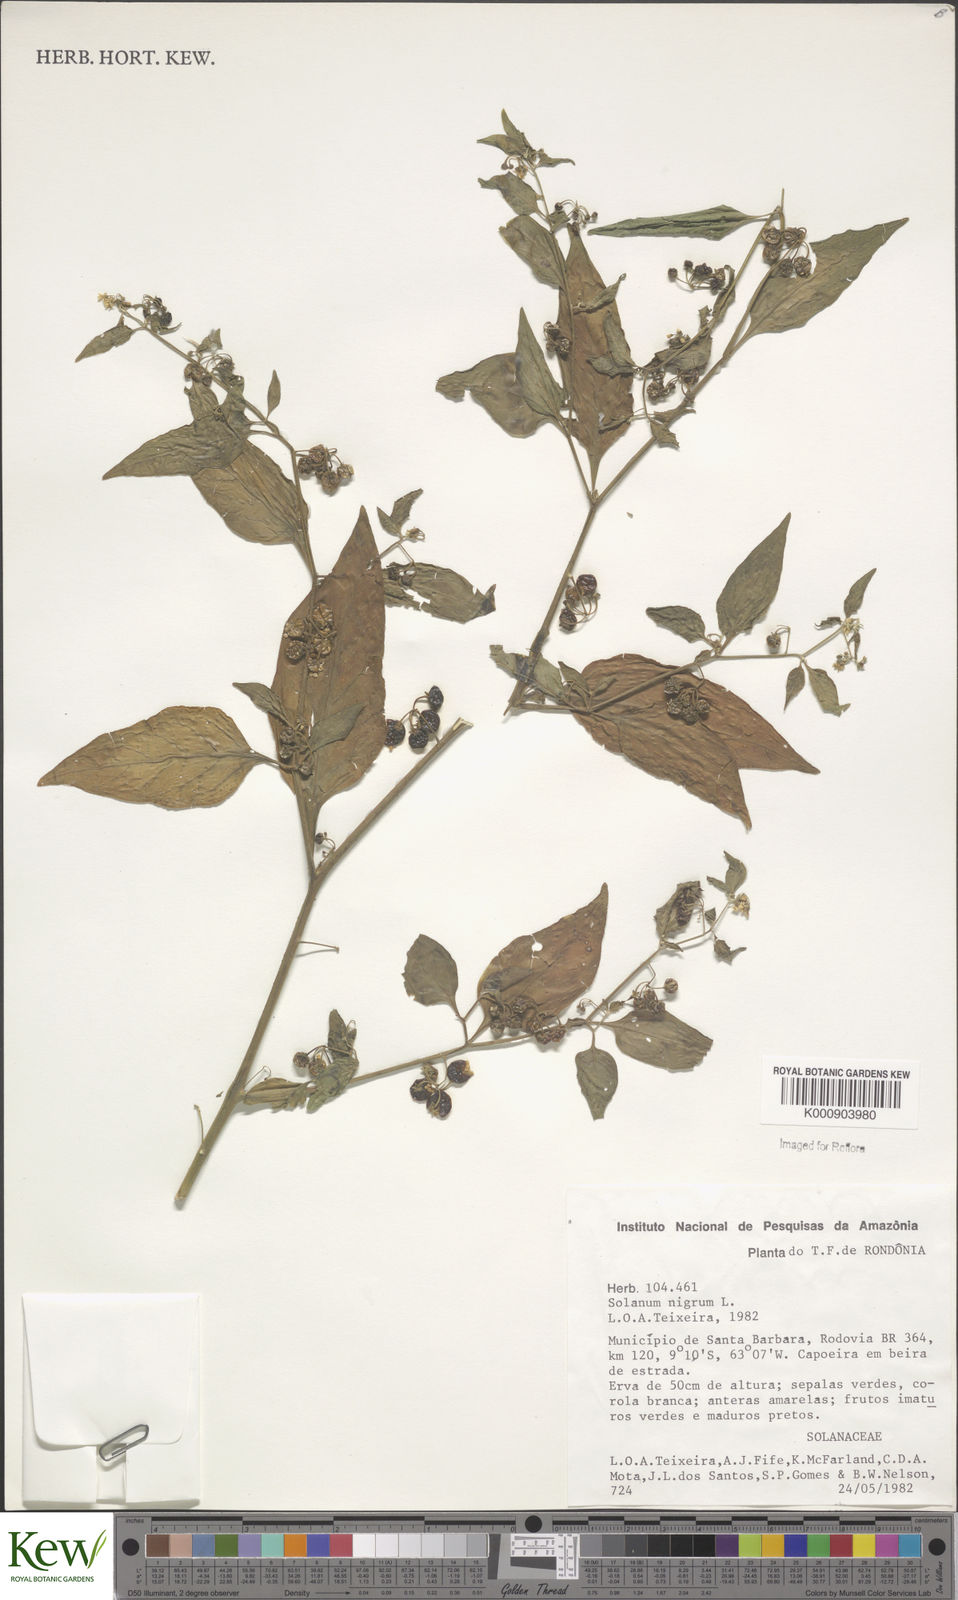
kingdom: Plantae
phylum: Tracheophyta
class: Magnoliopsida
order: Solanales
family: Solanaceae
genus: Solanum
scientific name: Solanum nigrum
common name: Black nightshade
